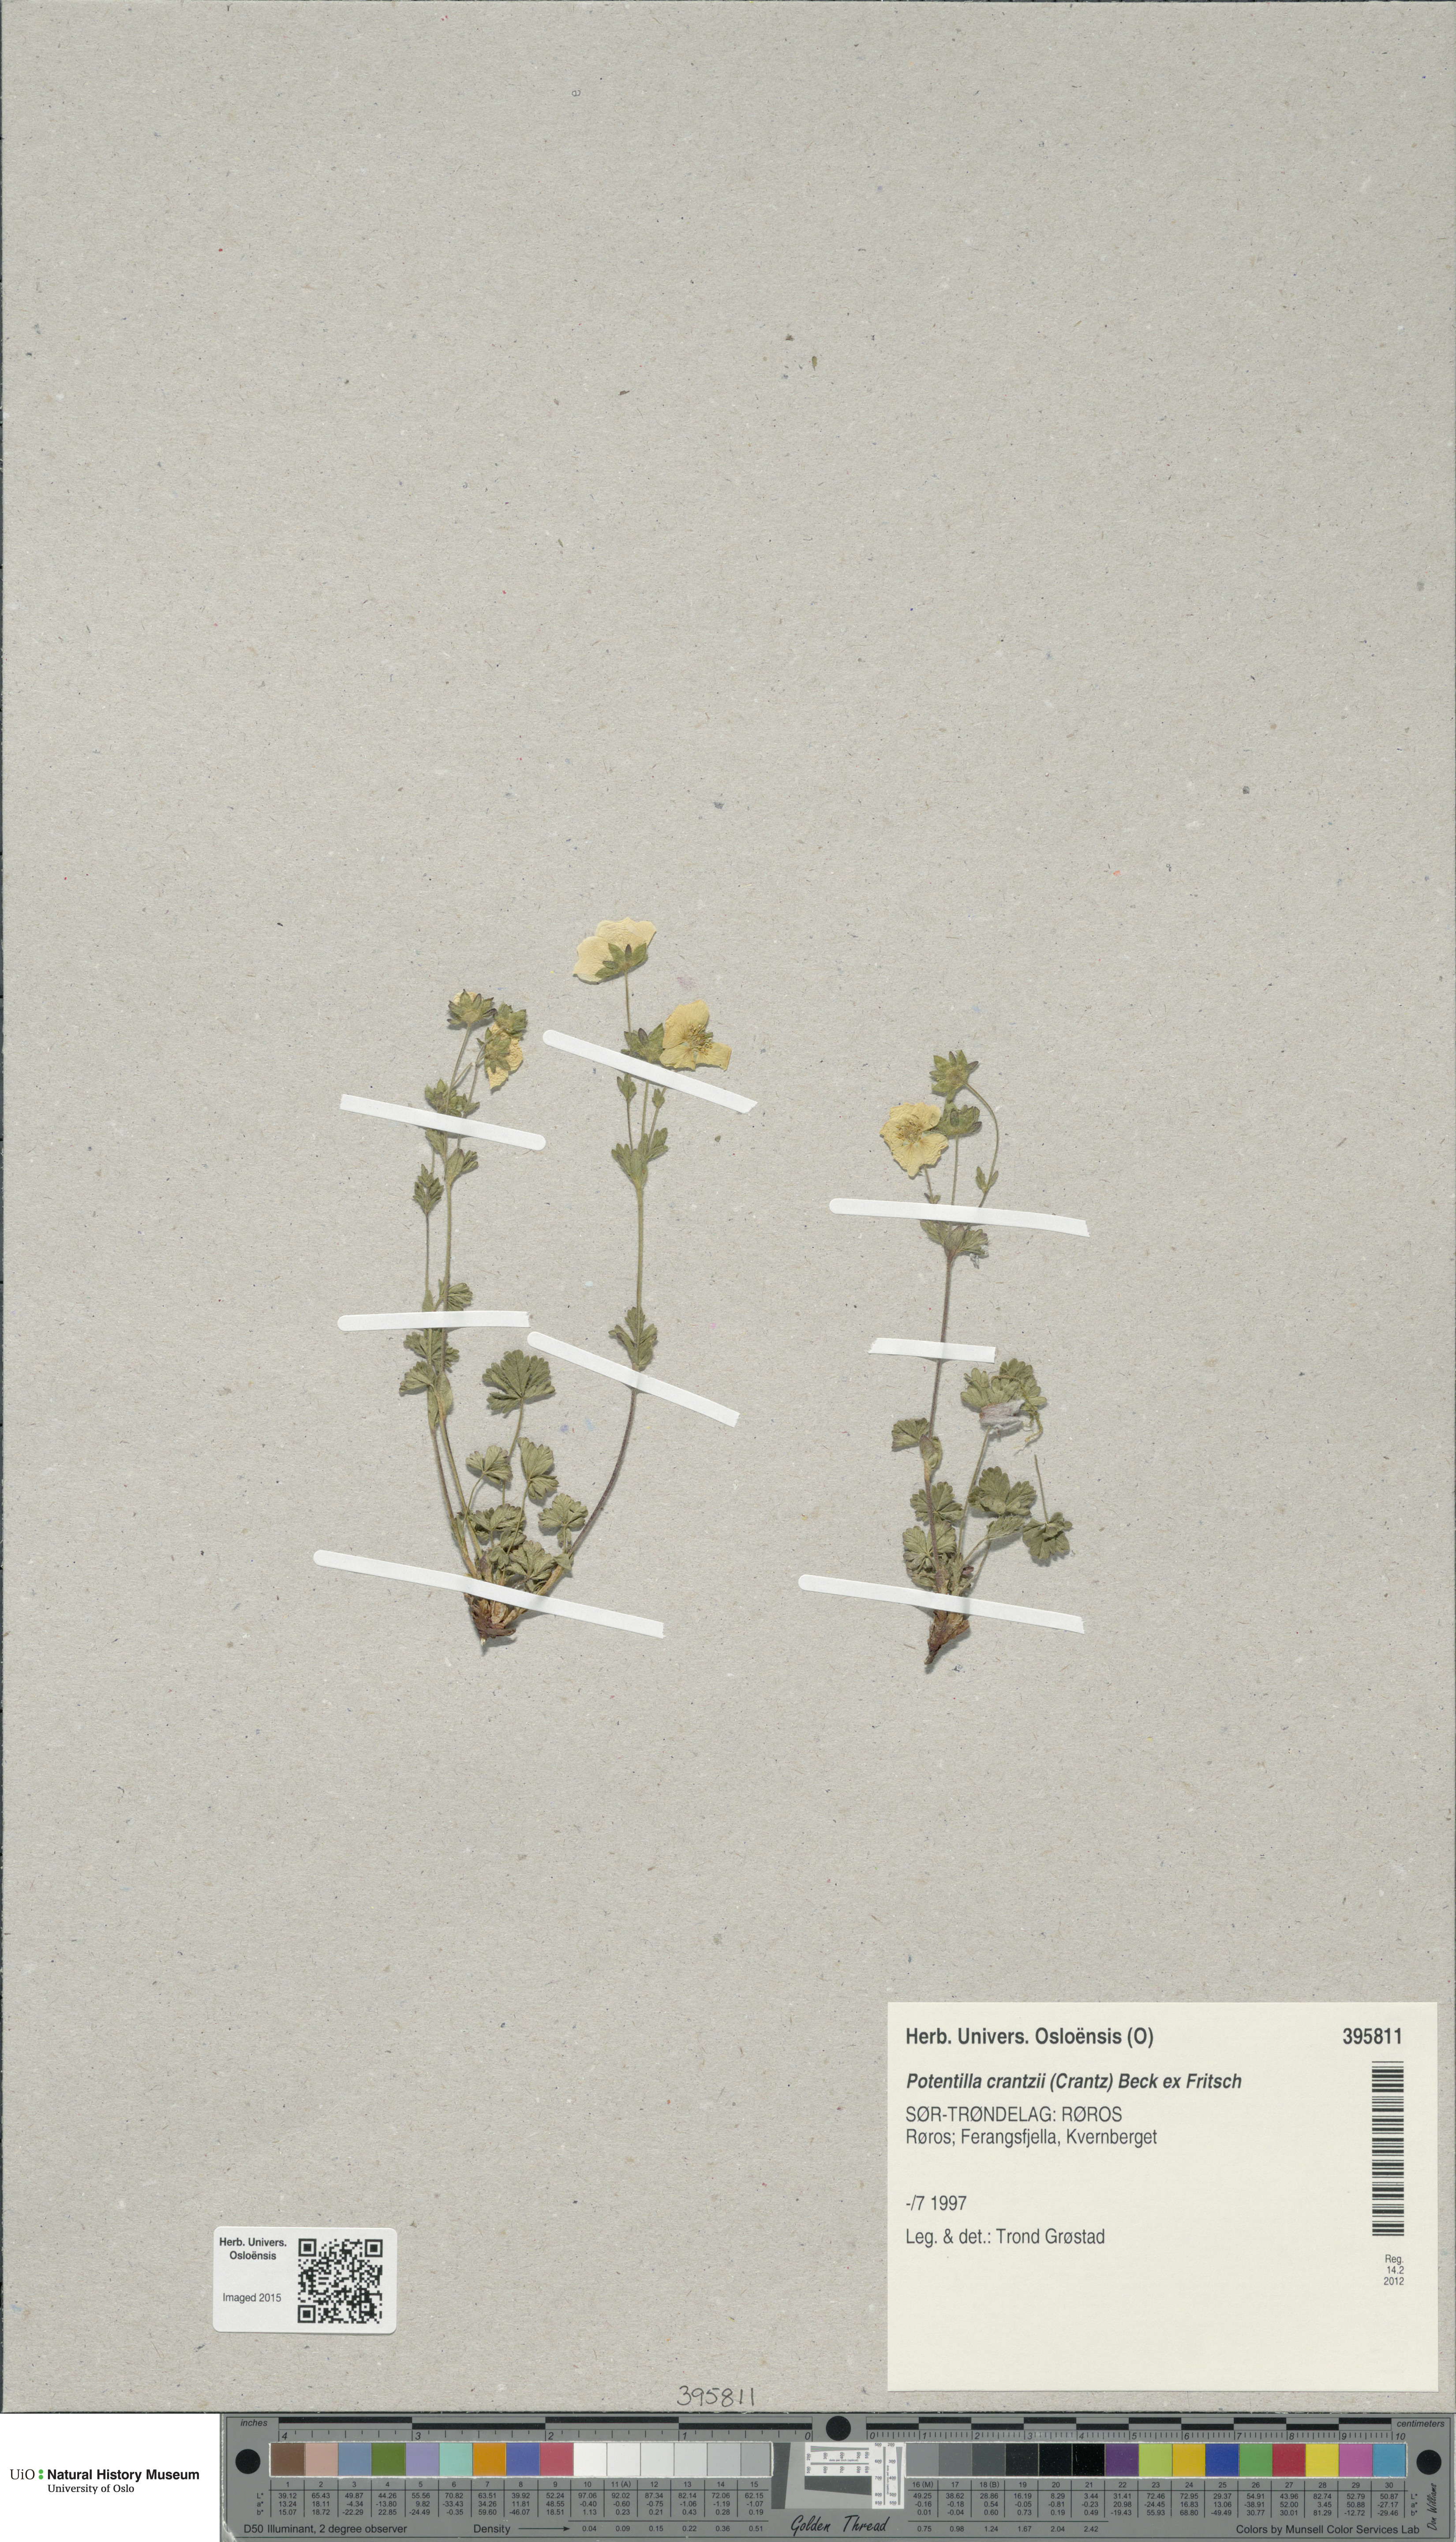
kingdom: Plantae
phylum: Tracheophyta
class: Magnoliopsida
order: Rosales
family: Rosaceae
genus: Potentilla
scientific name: Potentilla crantzii
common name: Alpine cinquefoil
